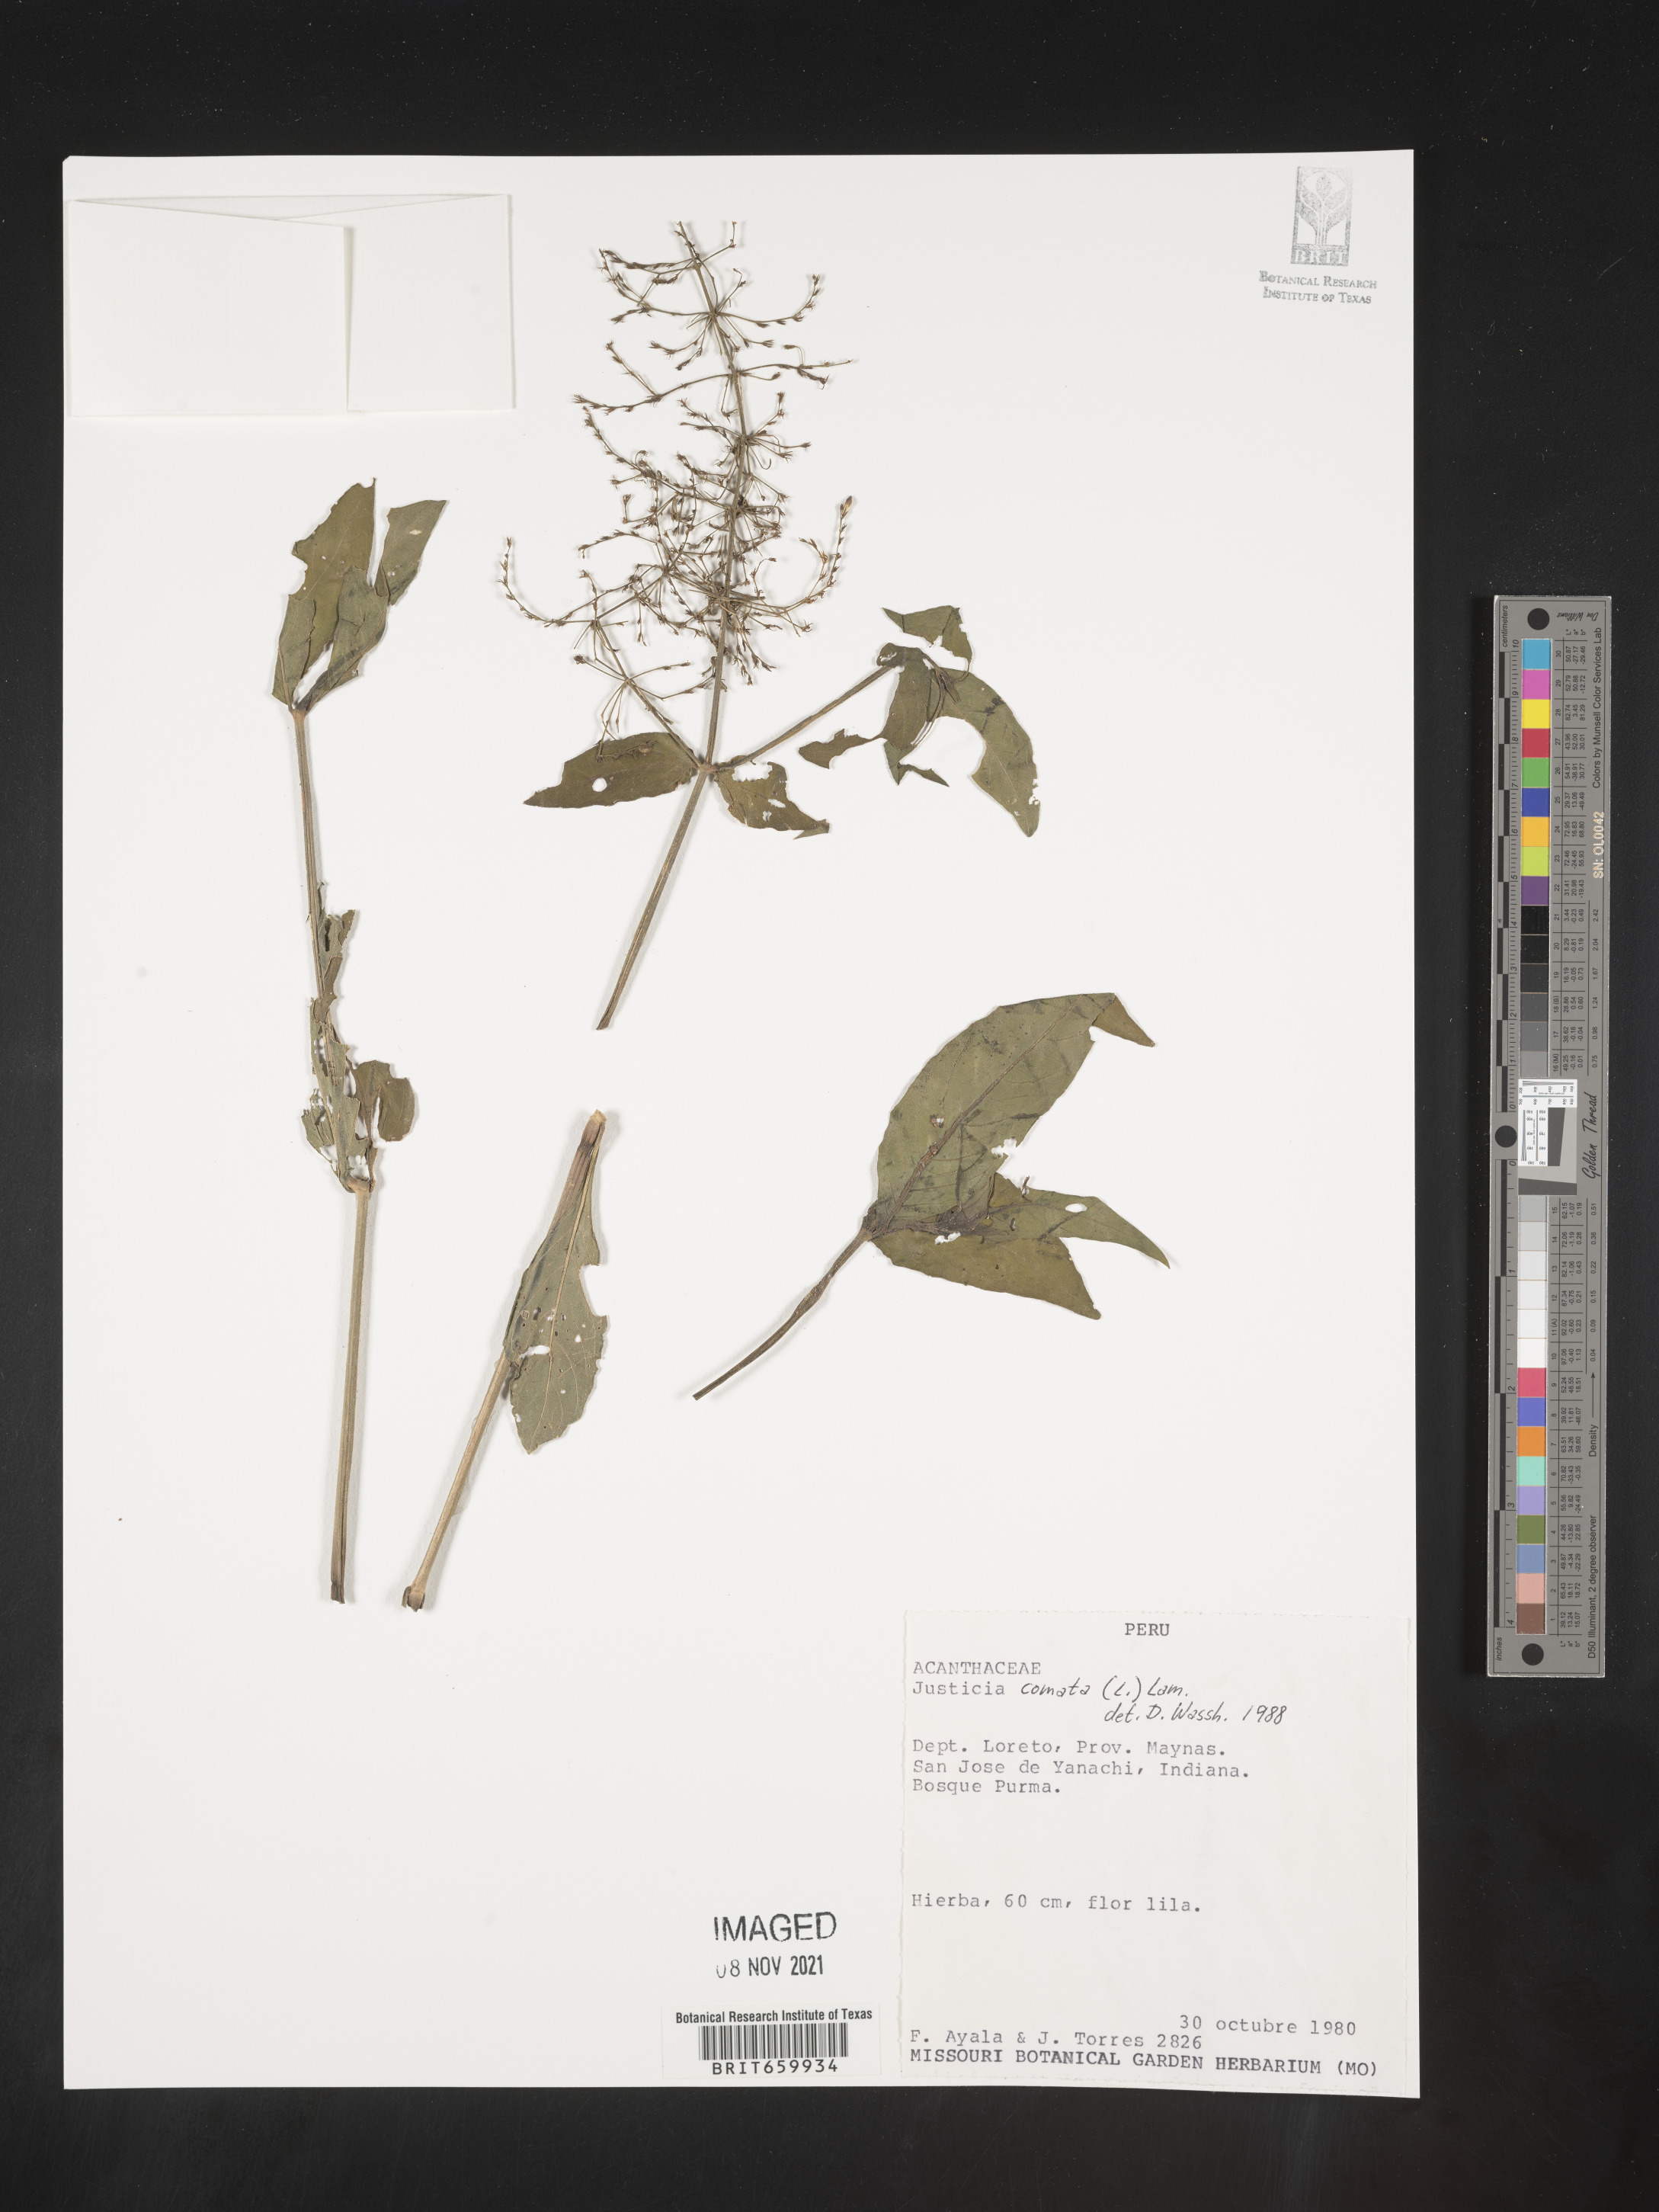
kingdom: Plantae
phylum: Tracheophyta
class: Magnoliopsida
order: Lamiales
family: Acanthaceae
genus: Dianthera
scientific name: Dianthera comata
